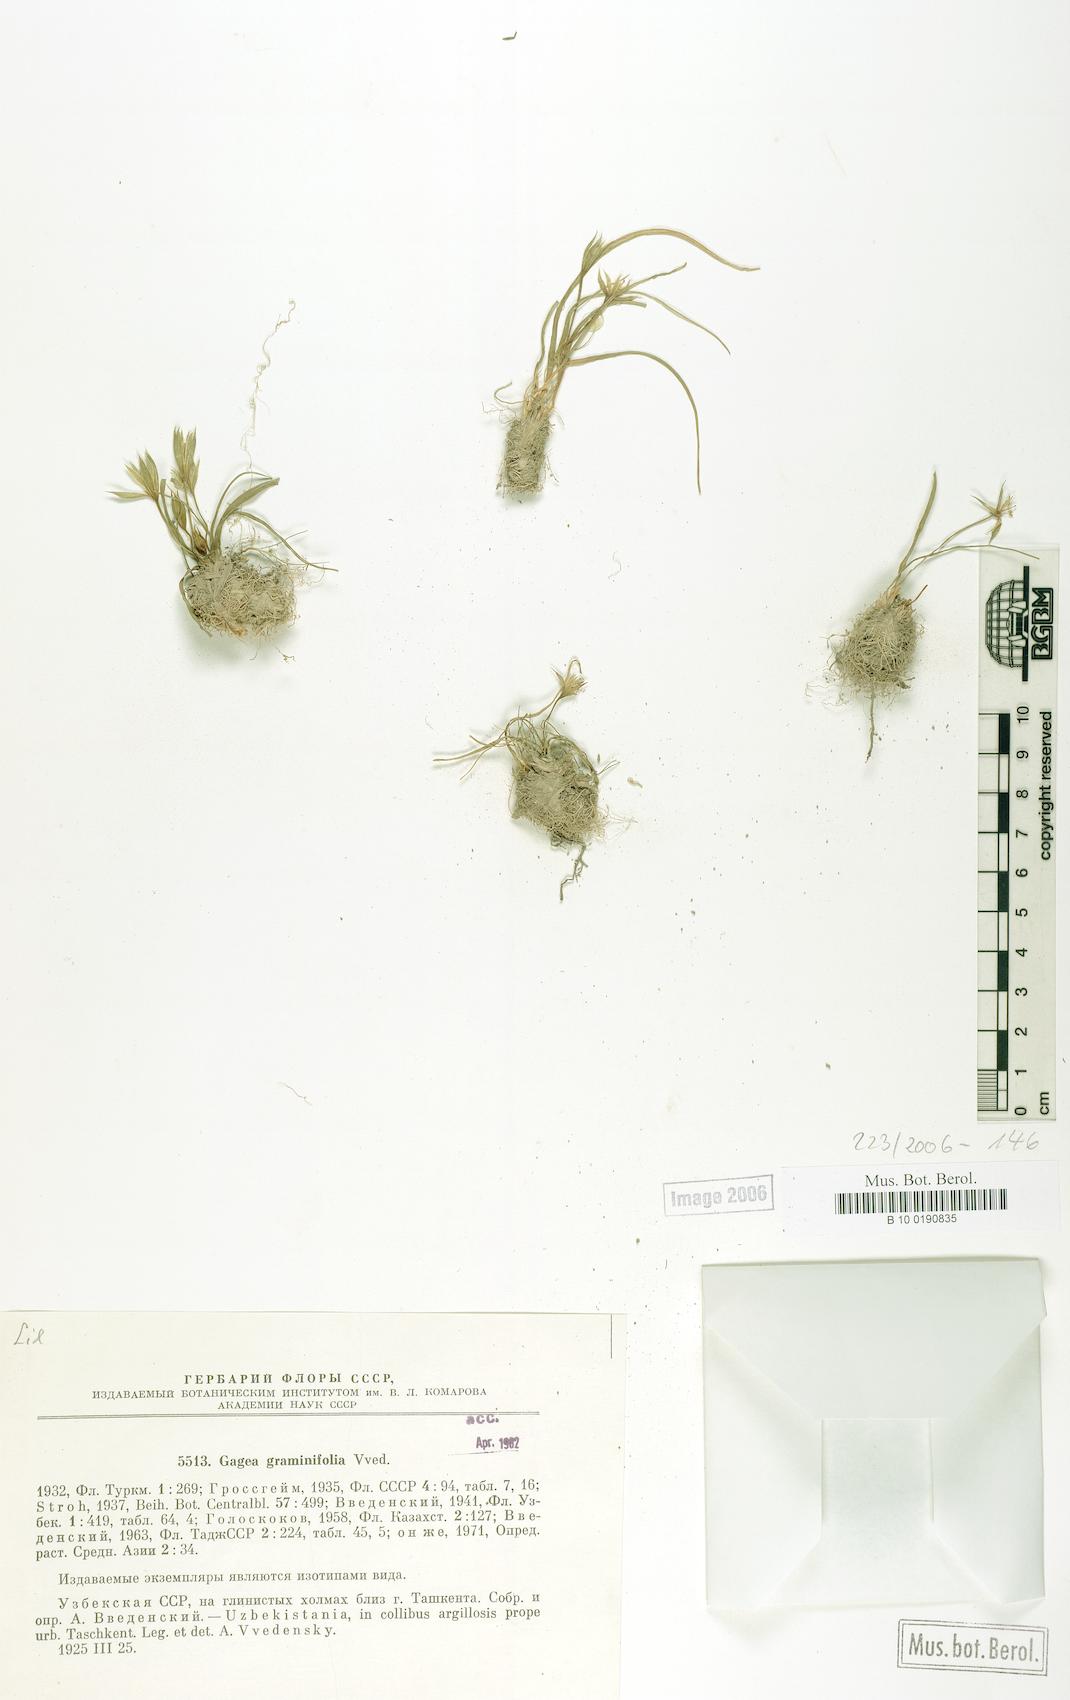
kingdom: Plantae
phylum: Tracheophyta
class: Liliopsida
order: Liliales
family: Liliaceae
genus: Gagea
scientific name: Gagea graminifolia
